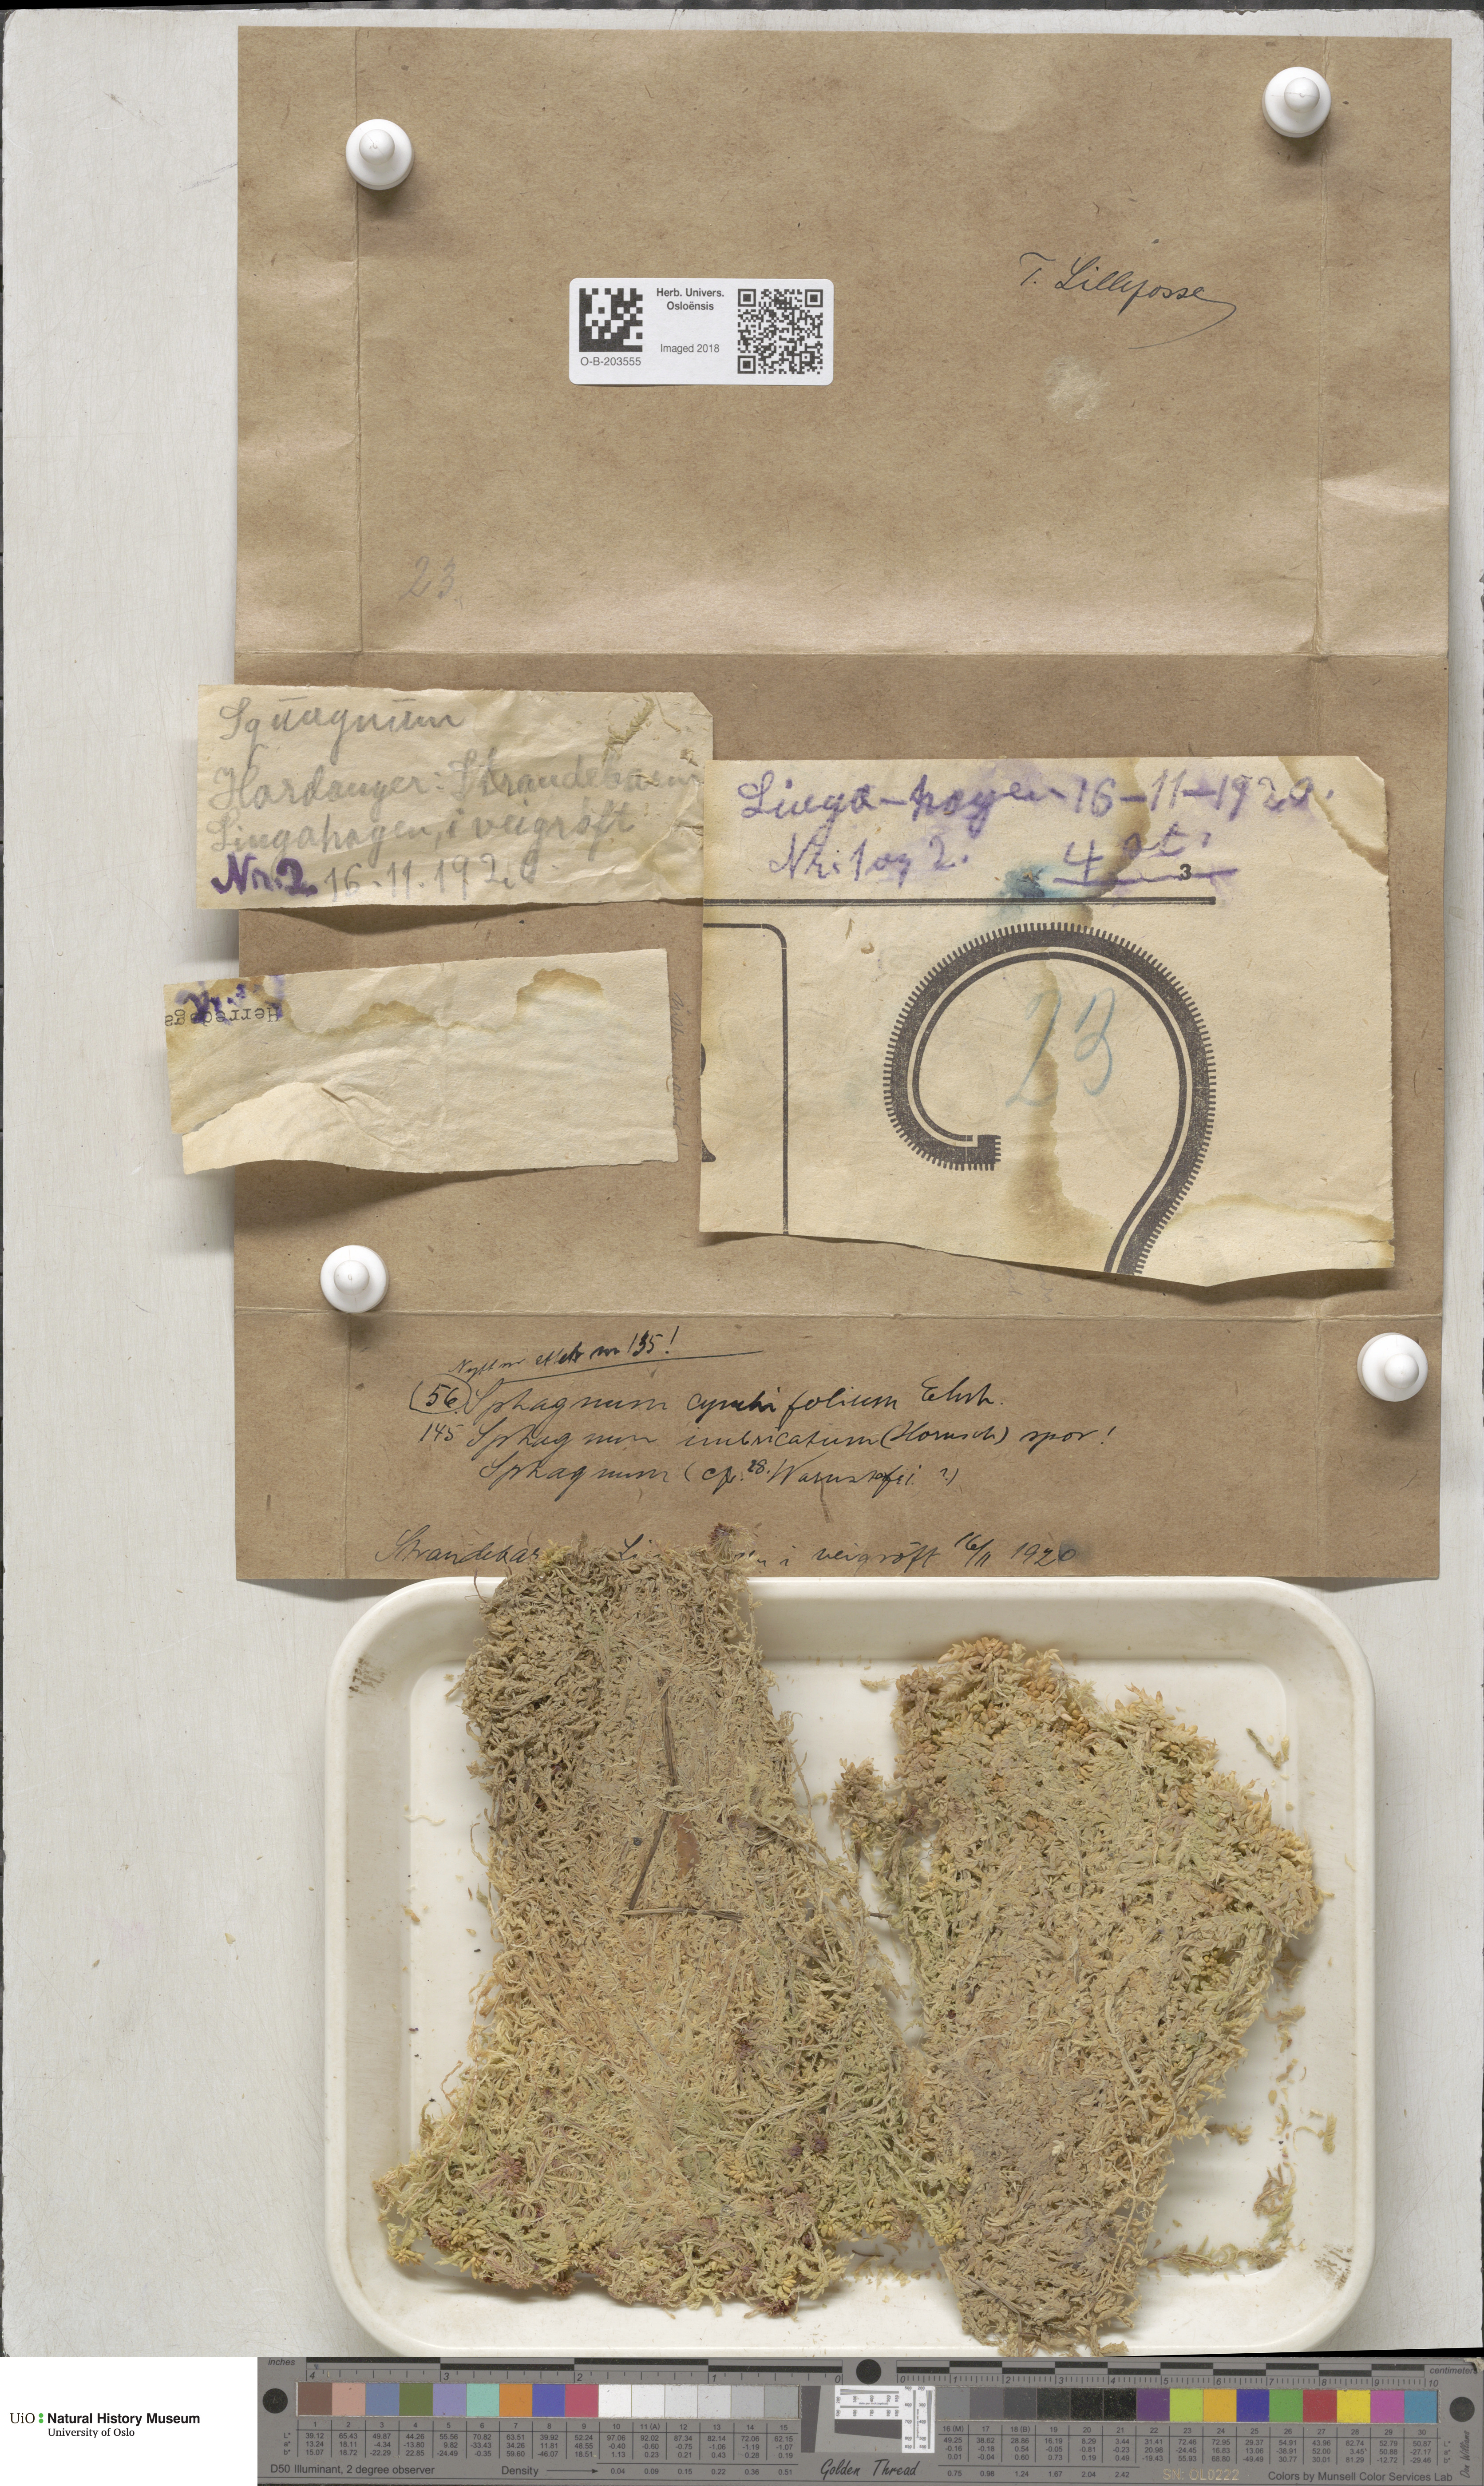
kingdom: Plantae
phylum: Bryophyta
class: Sphagnopsida
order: Sphagnales
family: Sphagnaceae
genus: Sphagnum
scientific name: Sphagnum palustre
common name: Blunt-leaved bog-moss
